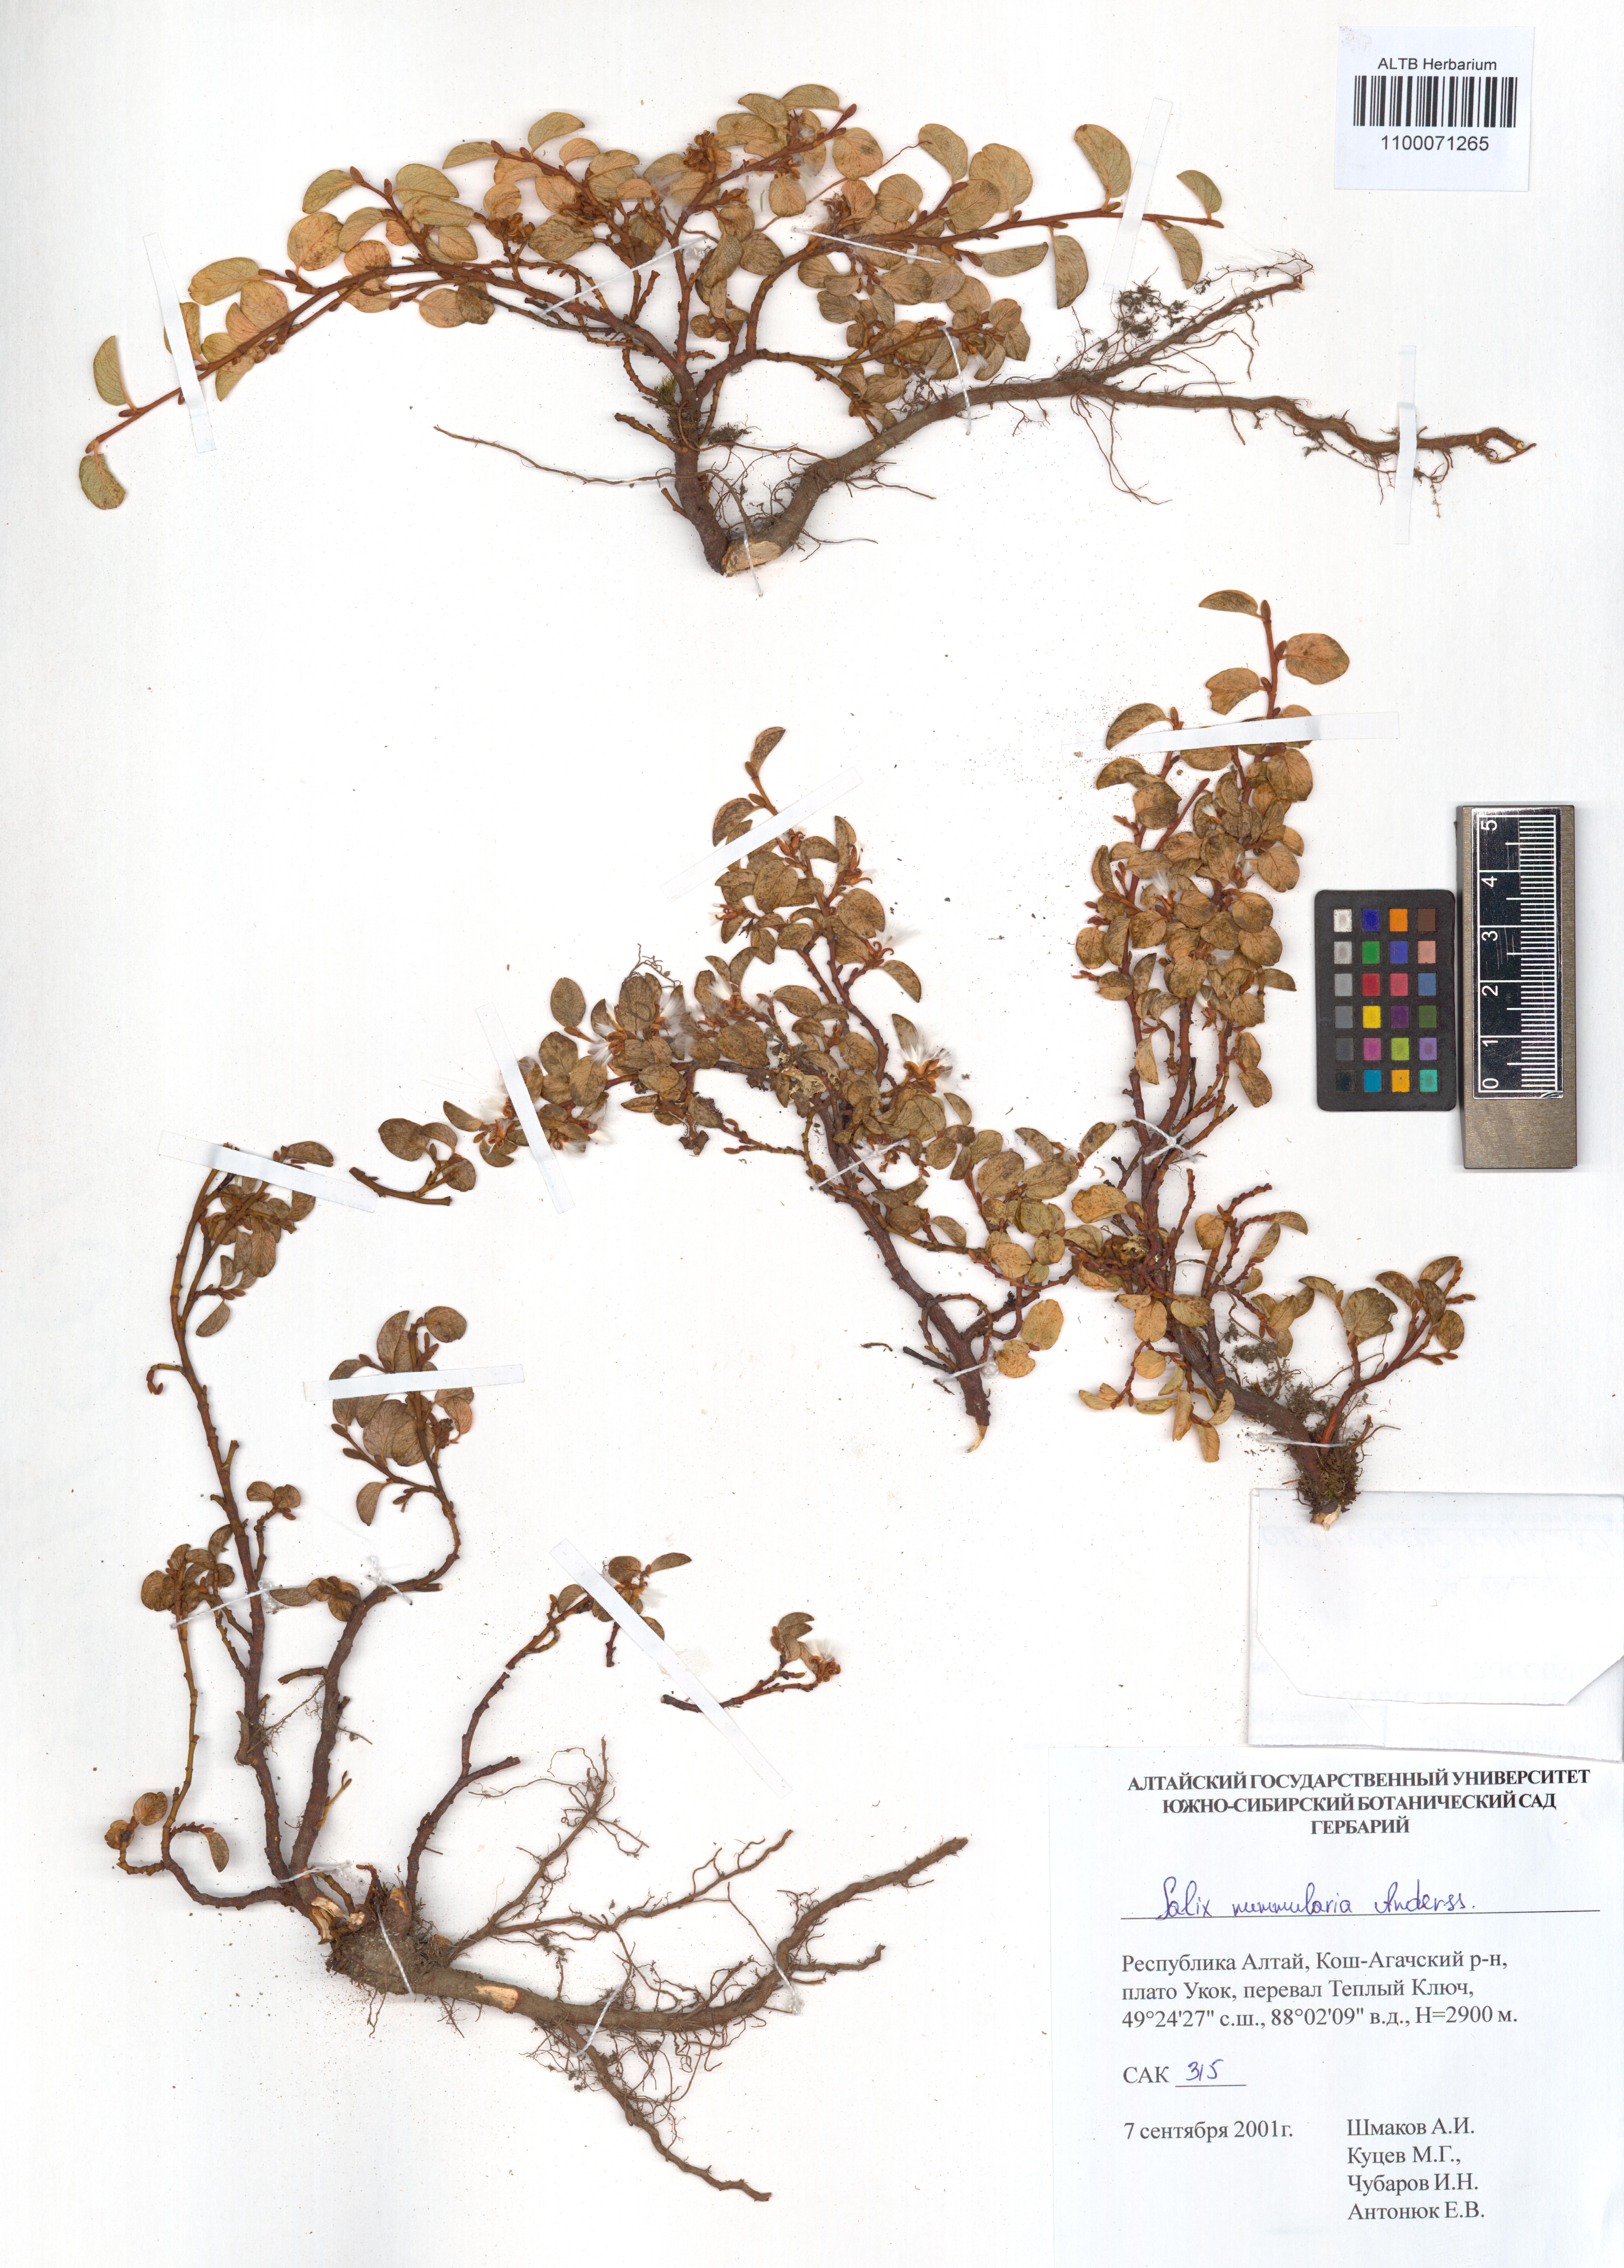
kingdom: Plantae
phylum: Tracheophyta
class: Magnoliopsida
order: Malpighiales
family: Salicaceae
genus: Salix
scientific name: Salix nummularia
